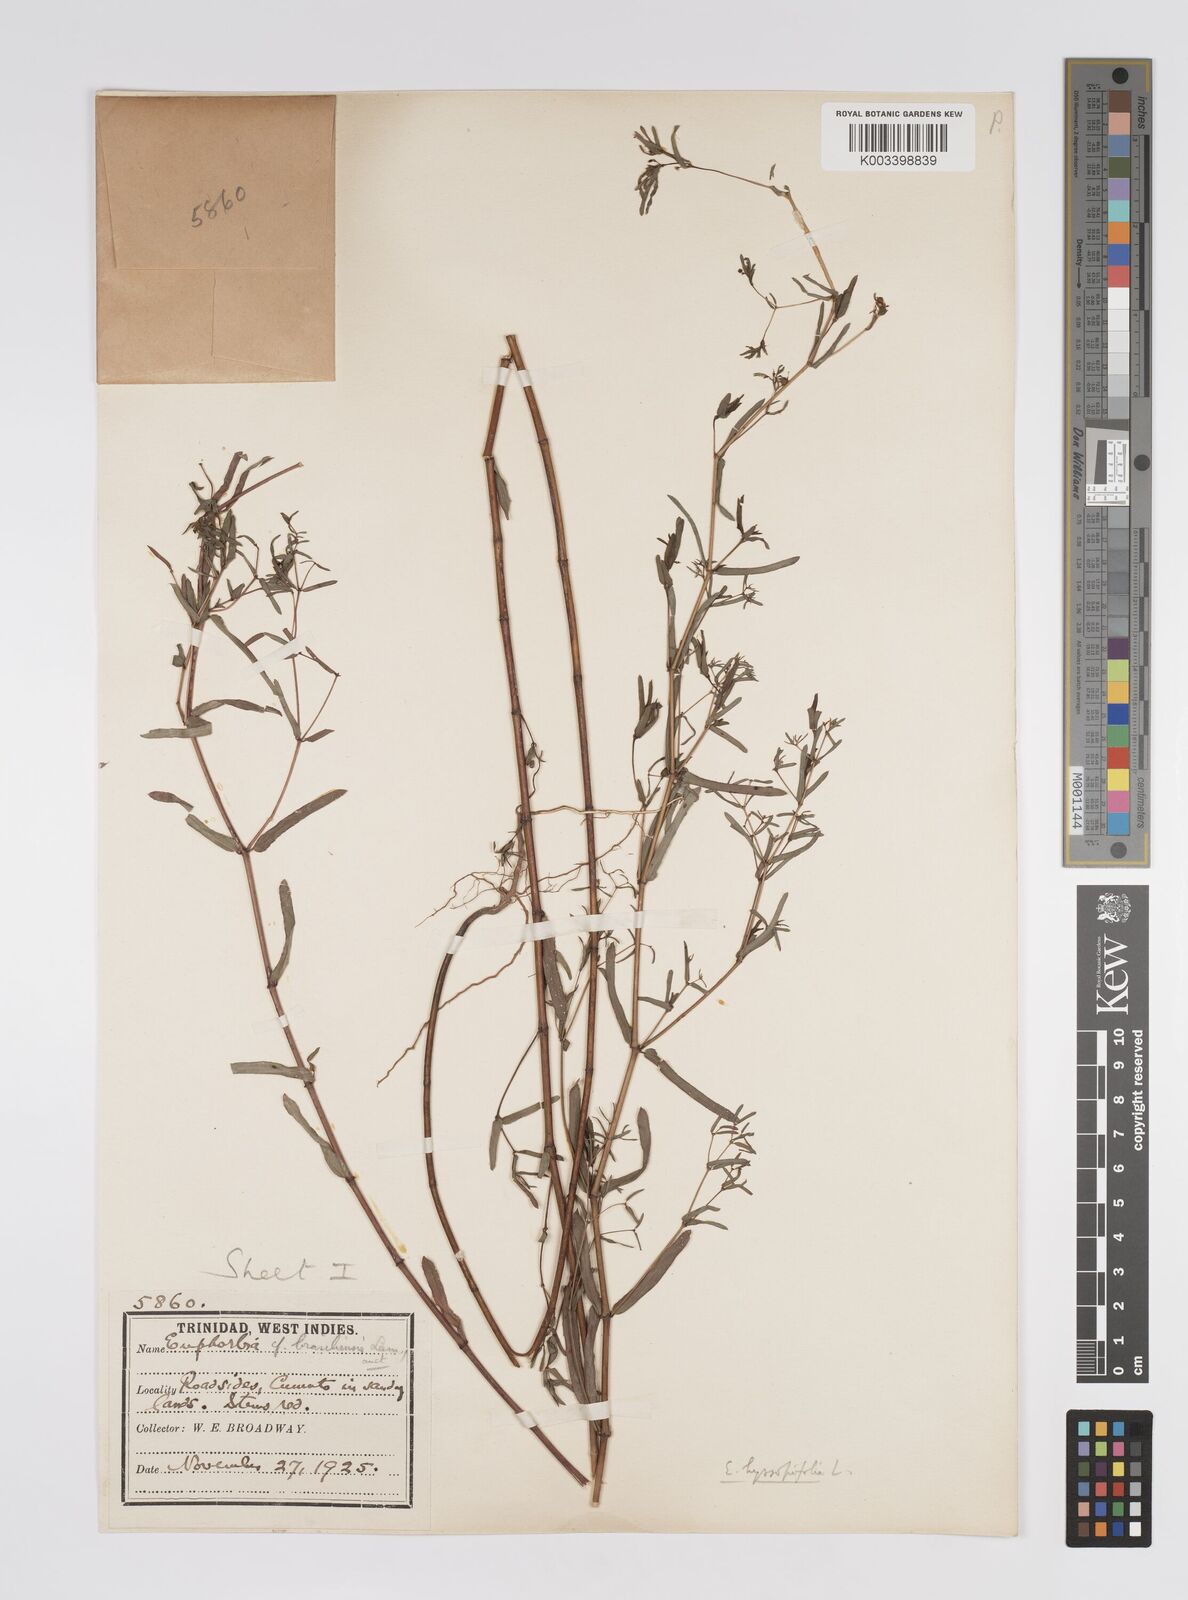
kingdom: Plantae
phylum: Tracheophyta
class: Magnoliopsida
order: Malpighiales
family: Euphorbiaceae
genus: Euphorbia
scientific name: Euphorbia hyssopifolia
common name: Hyssopleaf sandmat
